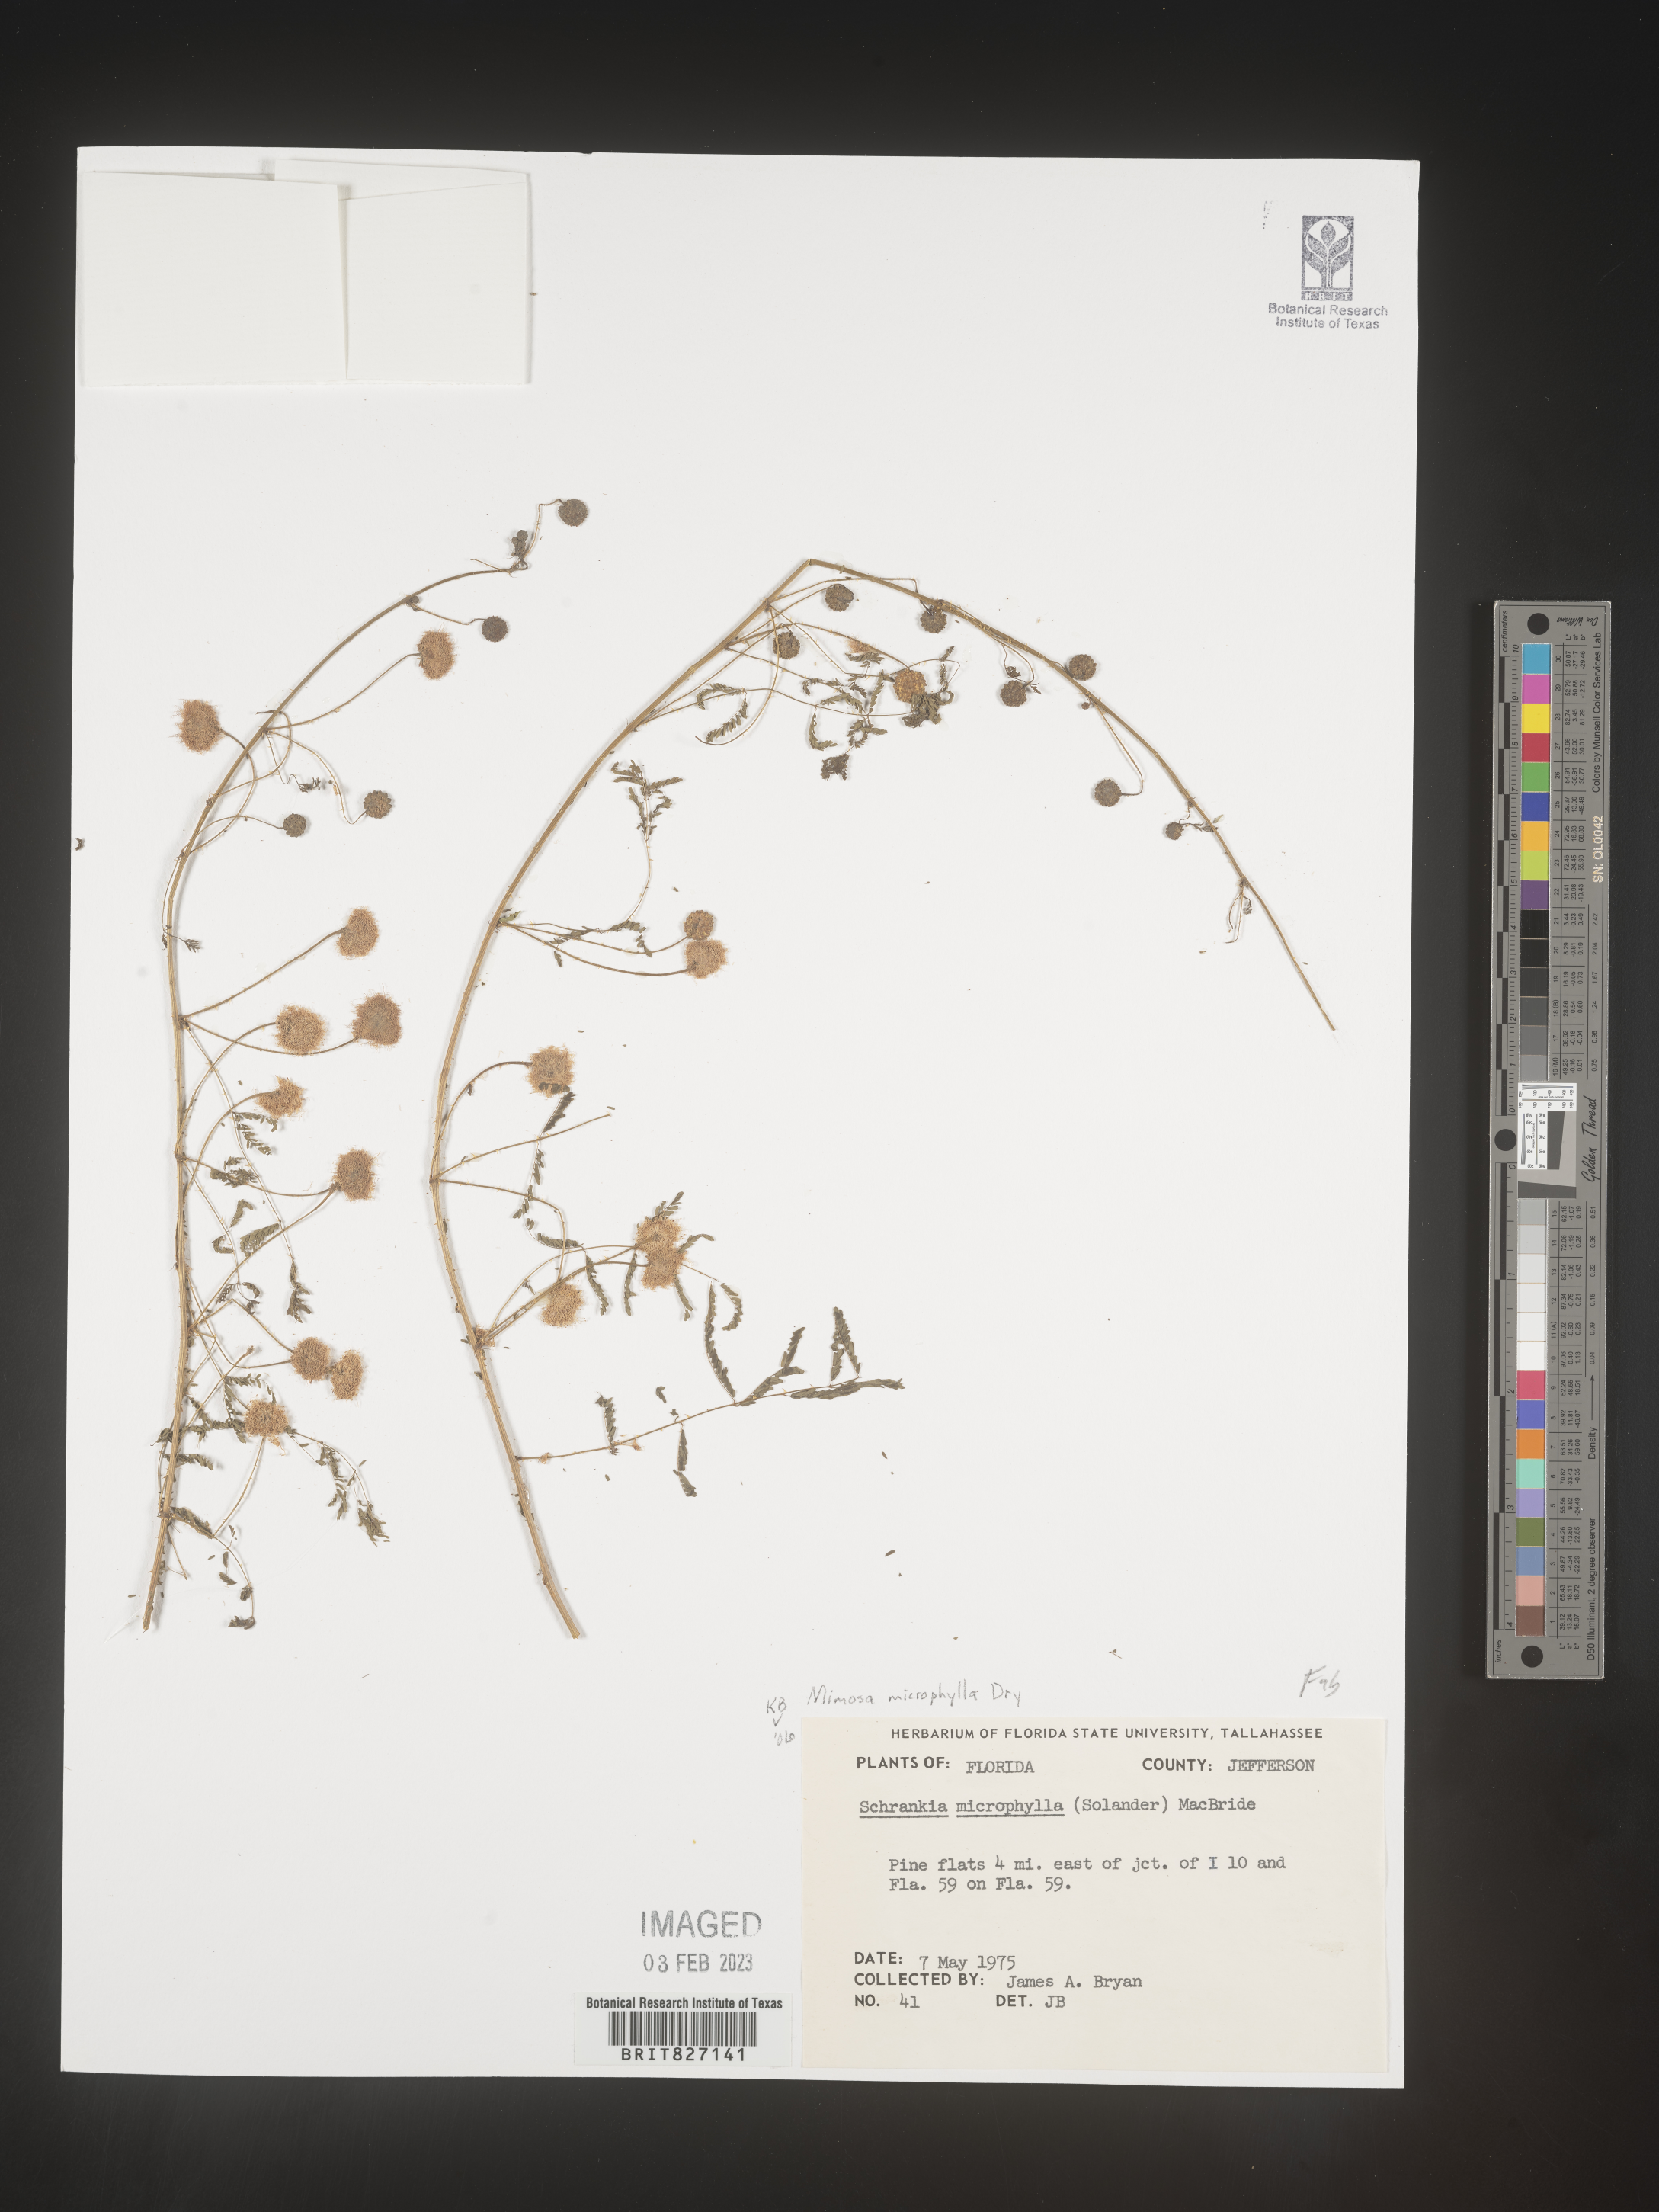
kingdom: Plantae
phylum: Tracheophyta
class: Magnoliopsida
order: Fabales
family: Fabaceae
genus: Mimosa
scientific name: Mimosa quadrivalvis
